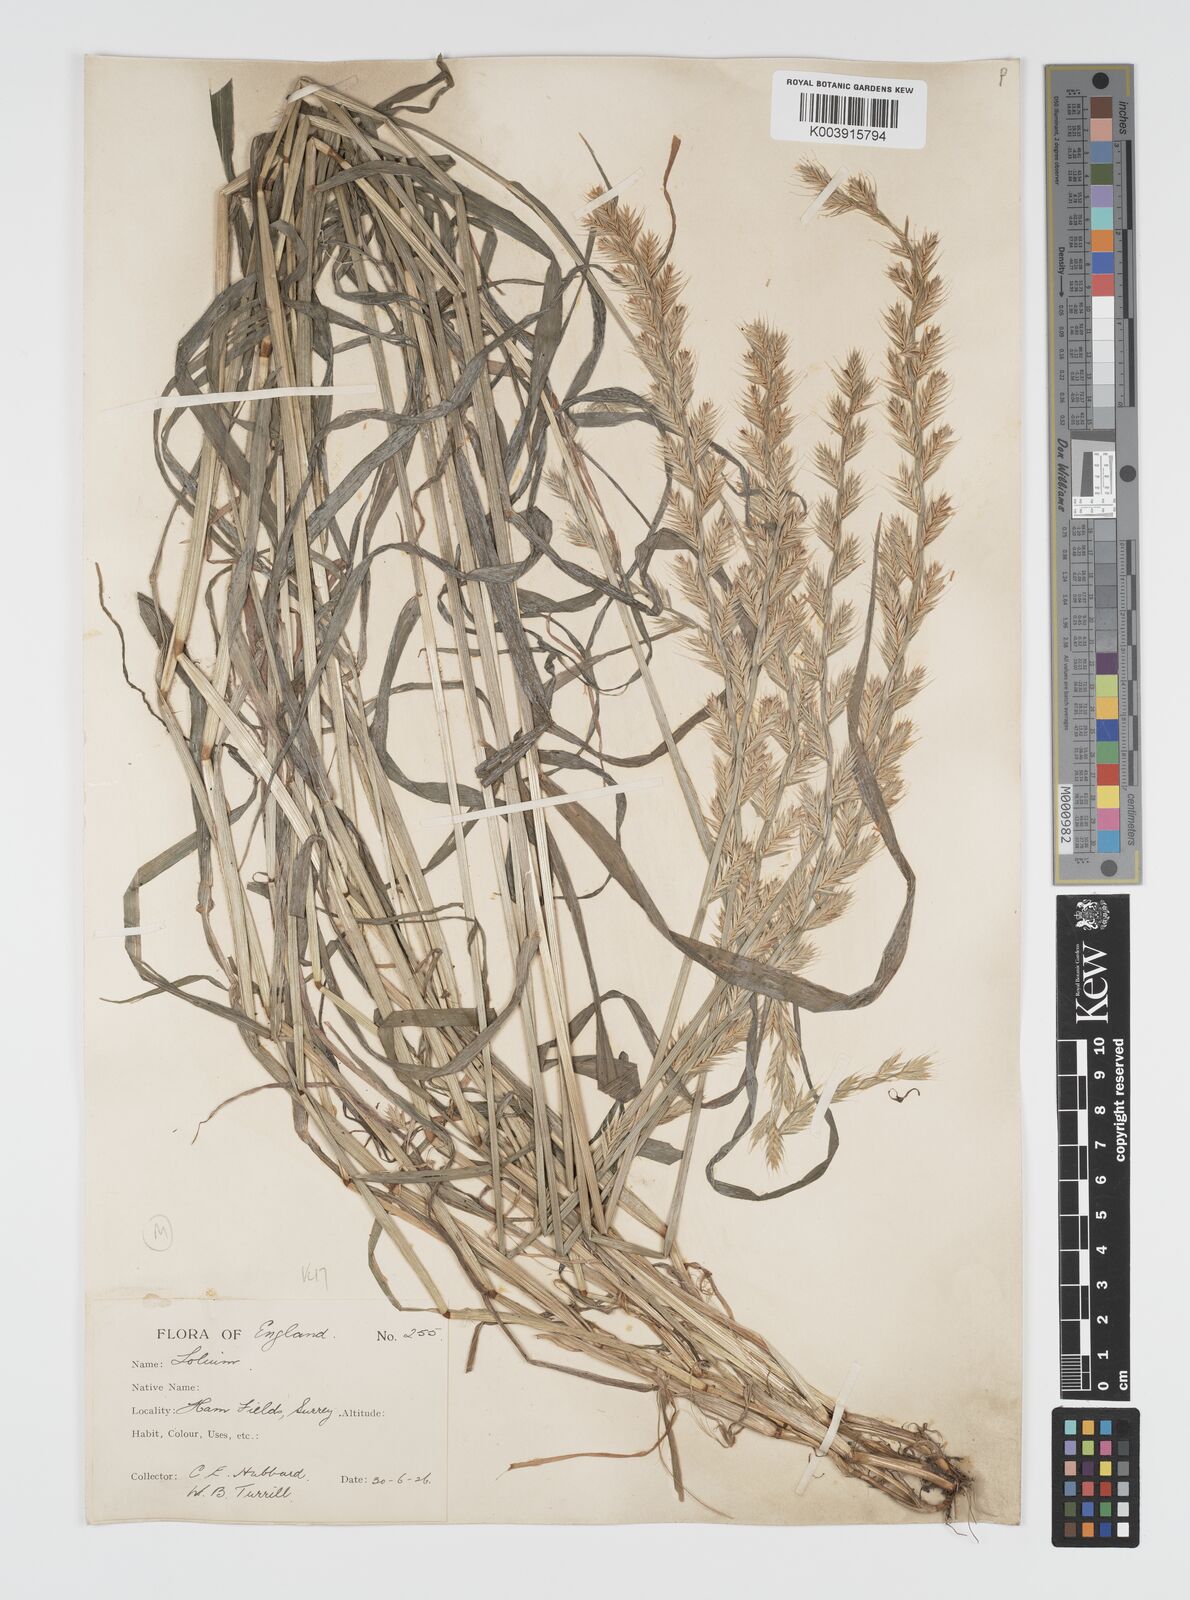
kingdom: Plantae
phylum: Tracheophyta
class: Liliopsida
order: Poales
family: Poaceae
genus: Lolium
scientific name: Lolium multiflorum
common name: Annual ryegrass
